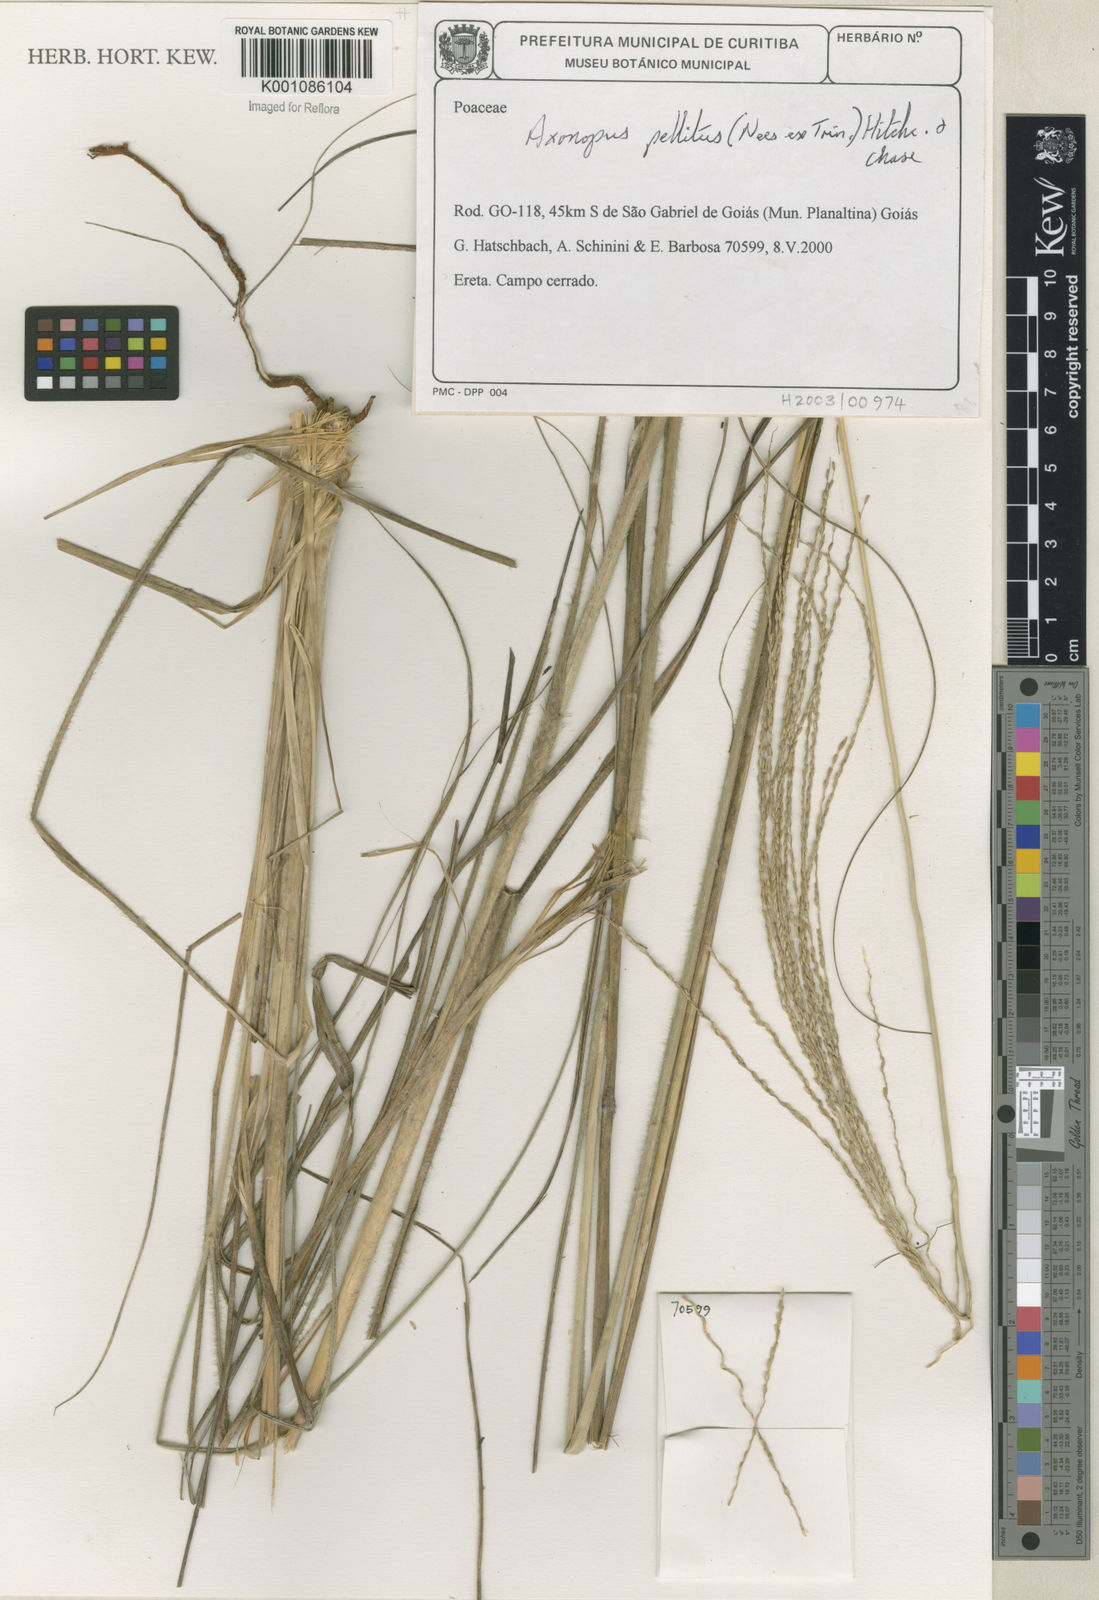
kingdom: Plantae
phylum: Tracheophyta
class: Liliopsida
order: Poales
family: Poaceae
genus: Axonopus
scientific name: Axonopus siccus
